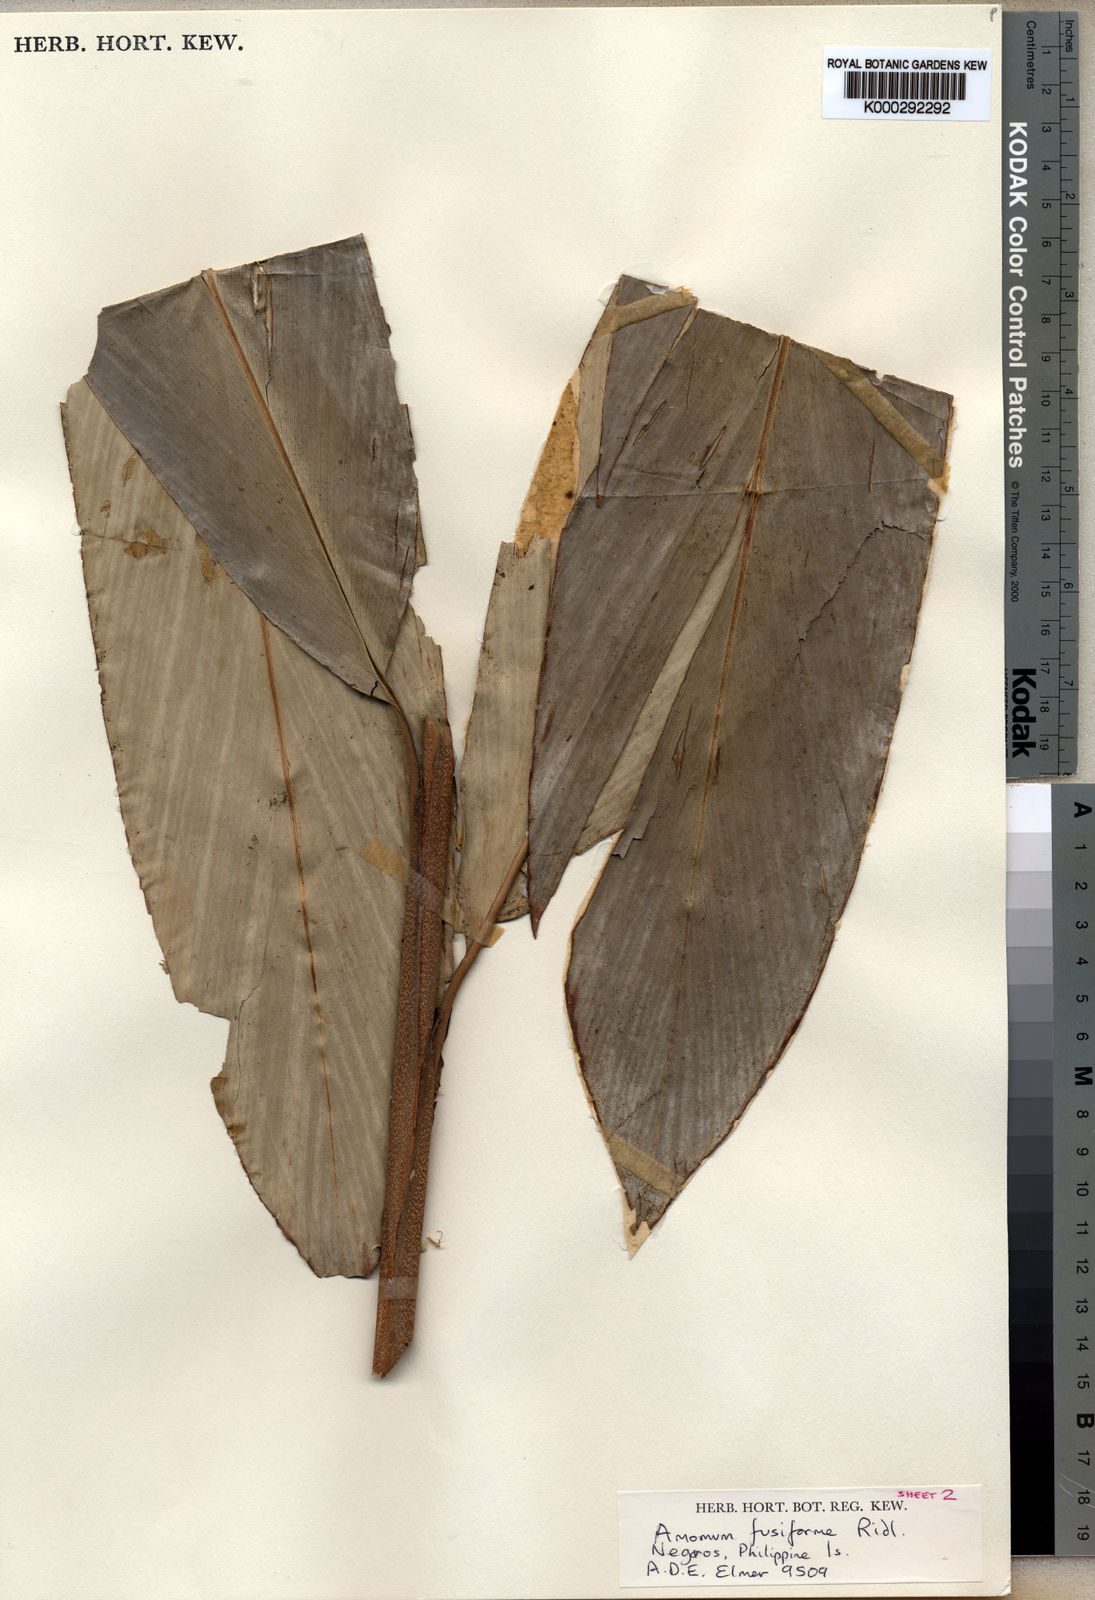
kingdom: Plantae
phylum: Tracheophyta
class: Liliopsida
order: Zingiberales
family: Zingiberaceae
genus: Geocharis
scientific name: Geocharis fusiformis
